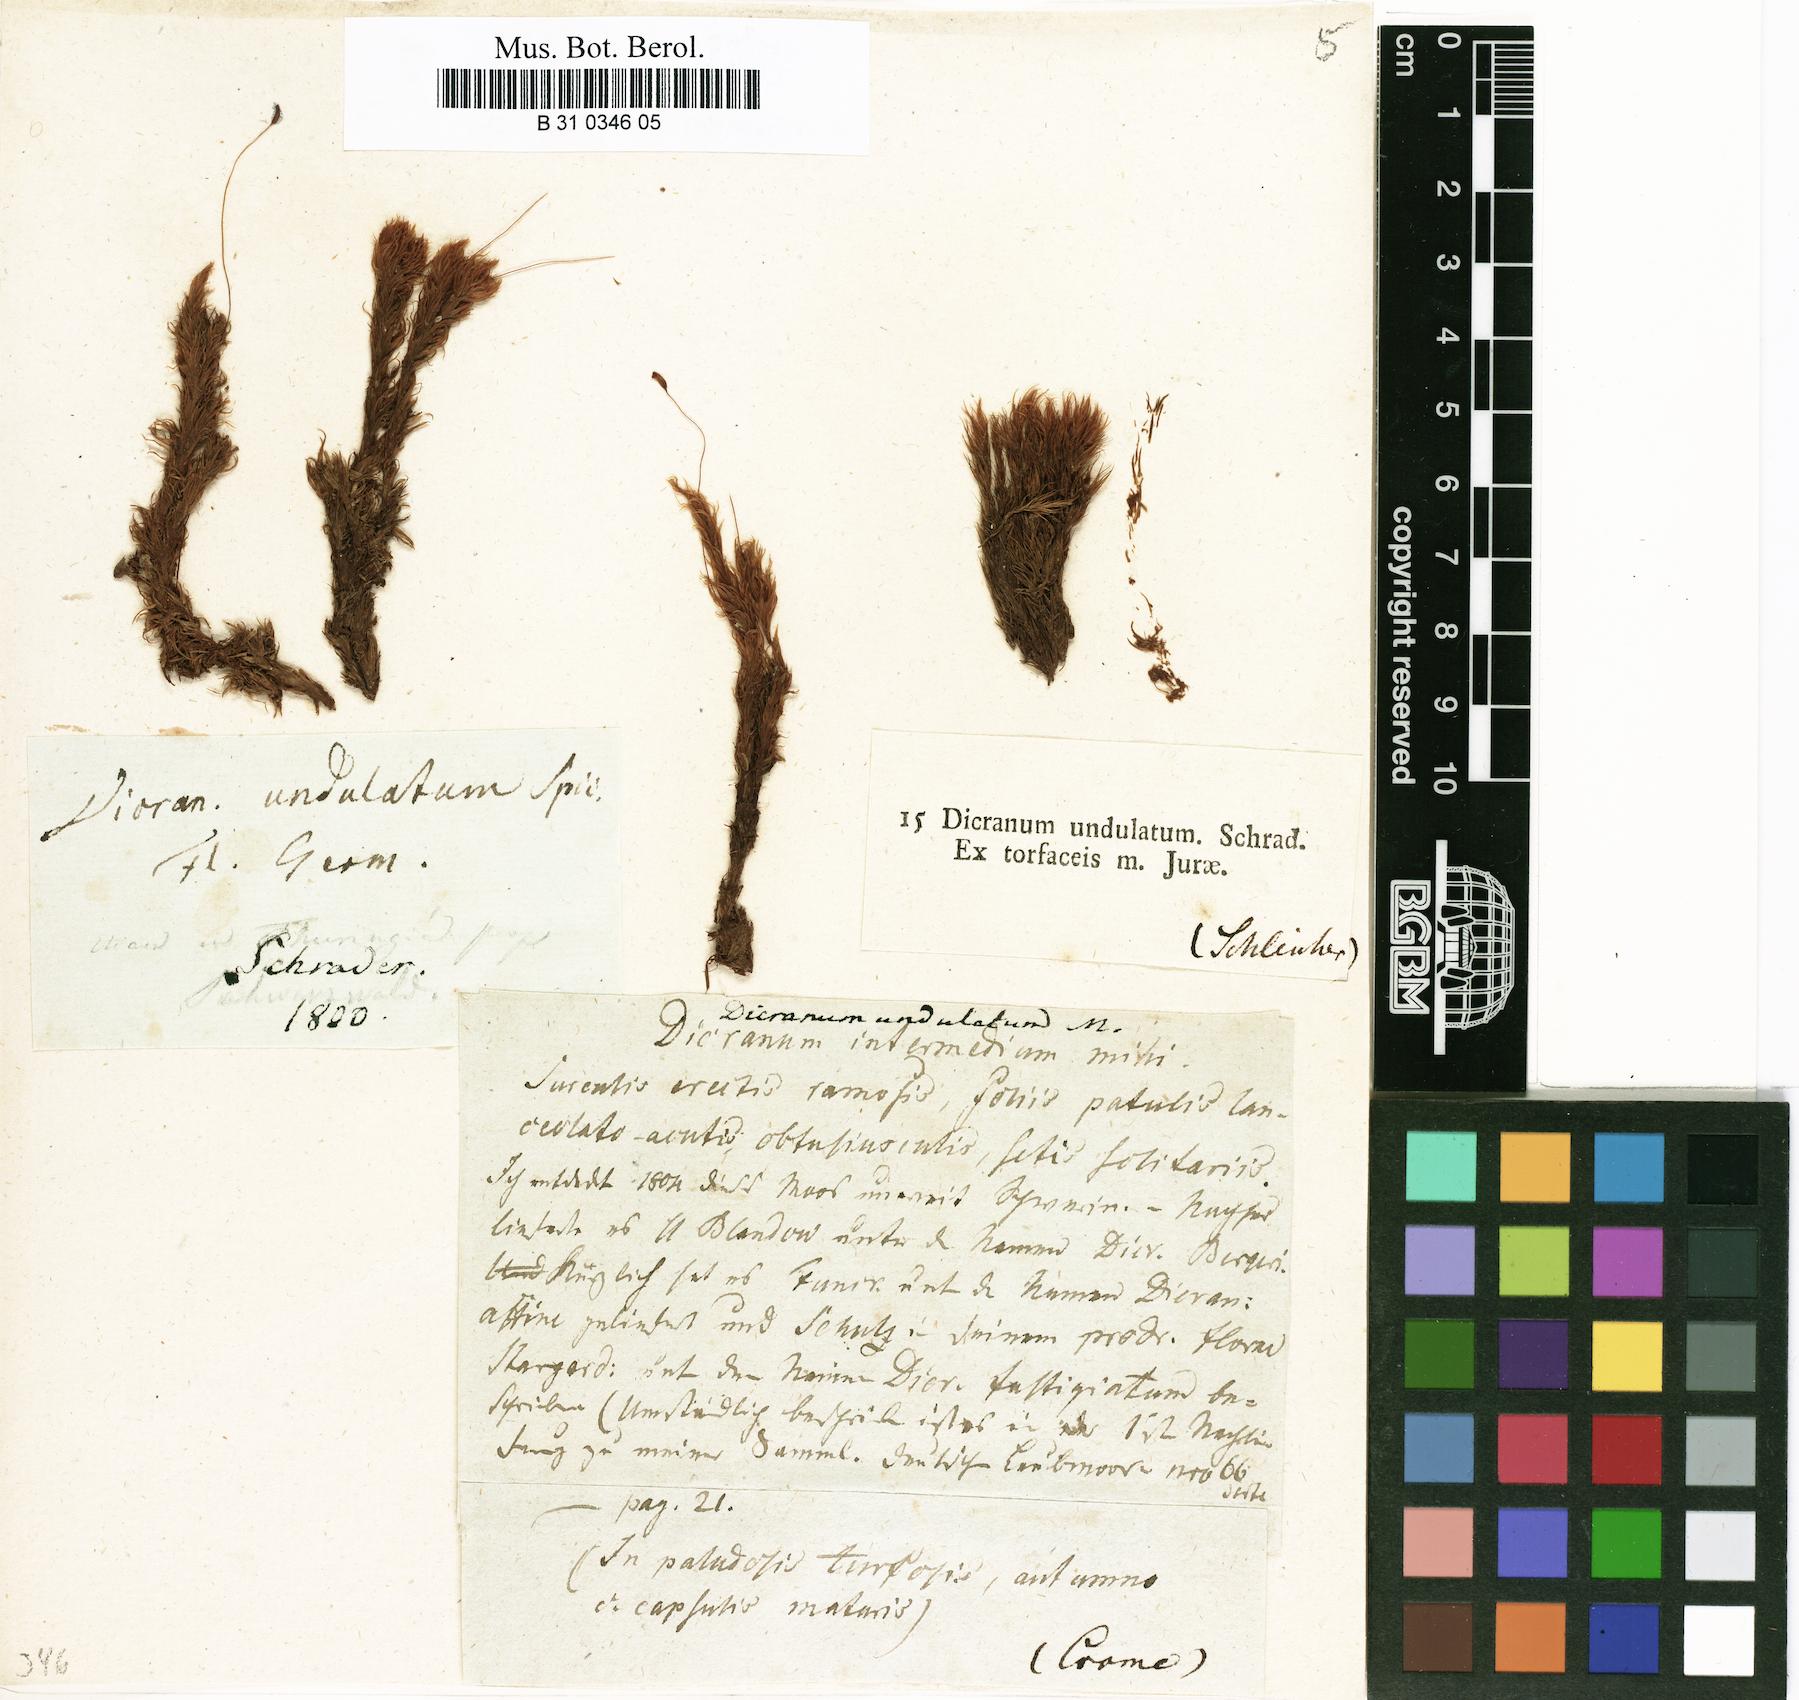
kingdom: Plantae
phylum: Bryophyta
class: Bryopsida
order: Dicranales
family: Dicranaceae
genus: Dicranum
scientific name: Dicranum undulatum
